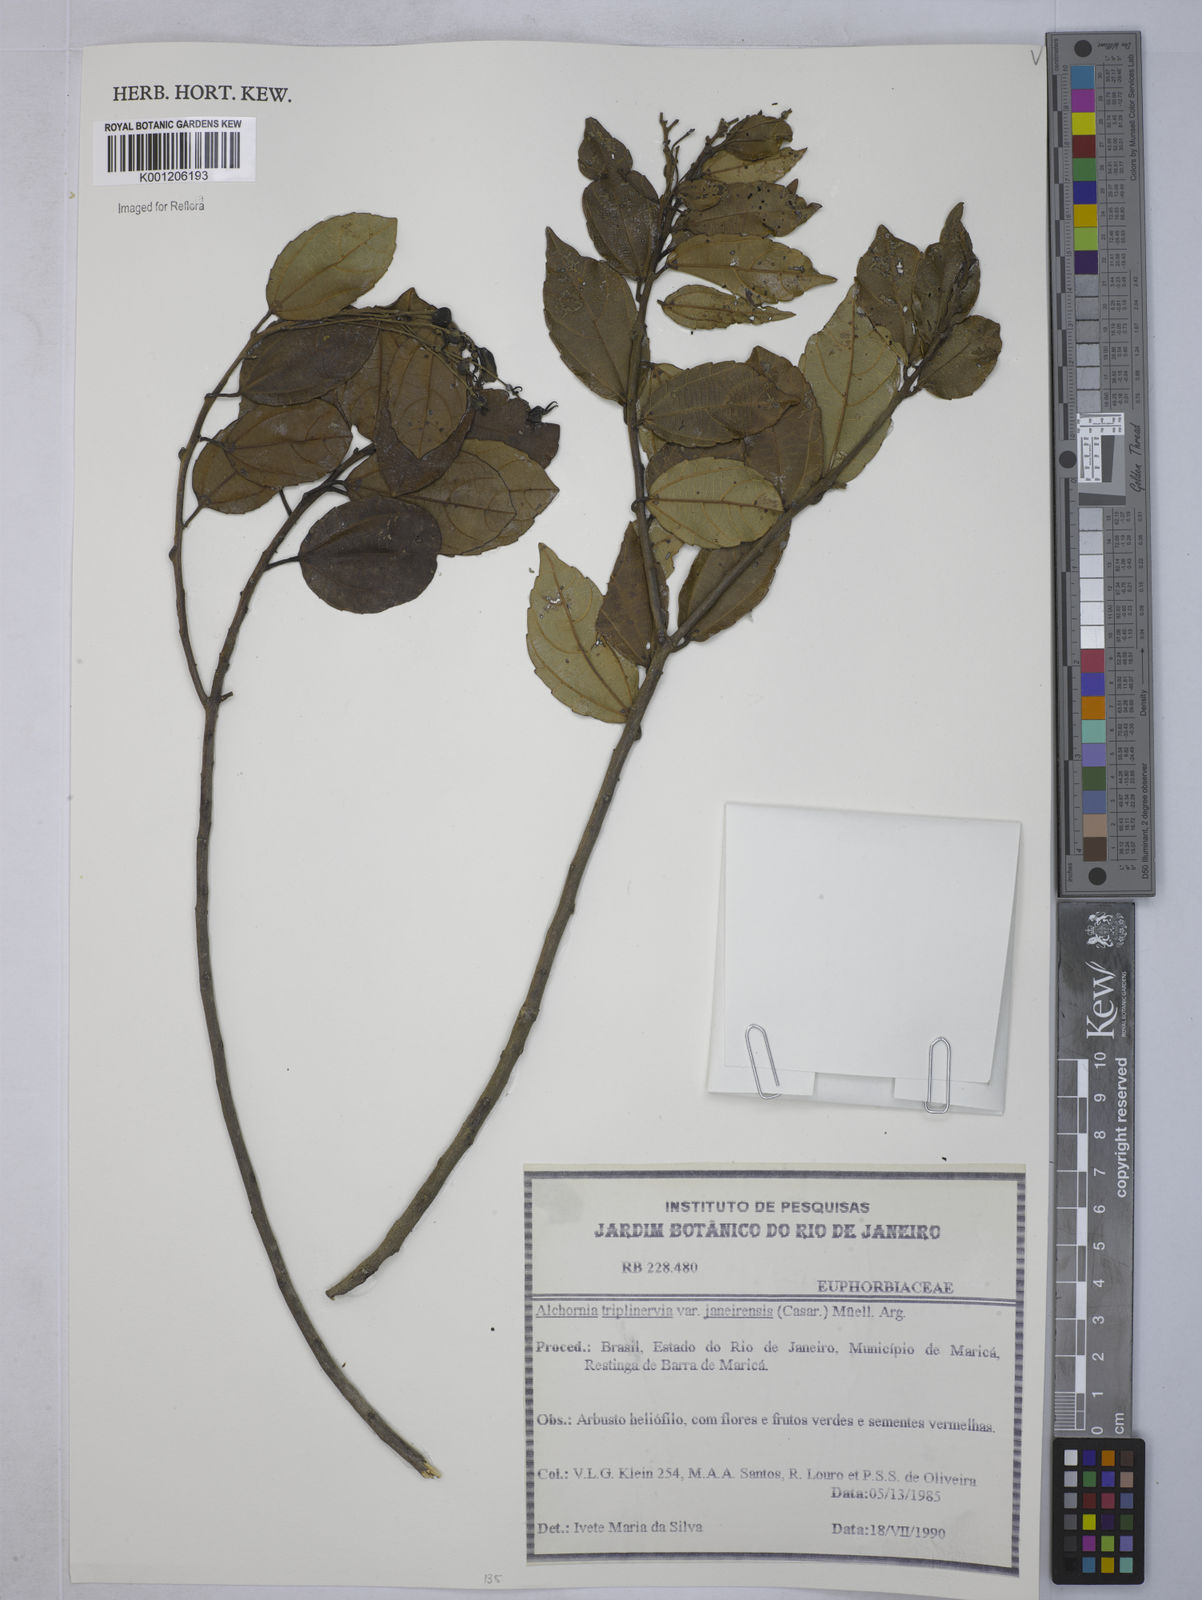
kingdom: Plantae
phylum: Tracheophyta
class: Magnoliopsida
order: Malpighiales
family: Euphorbiaceae
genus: Alchornea
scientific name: Alchornea
